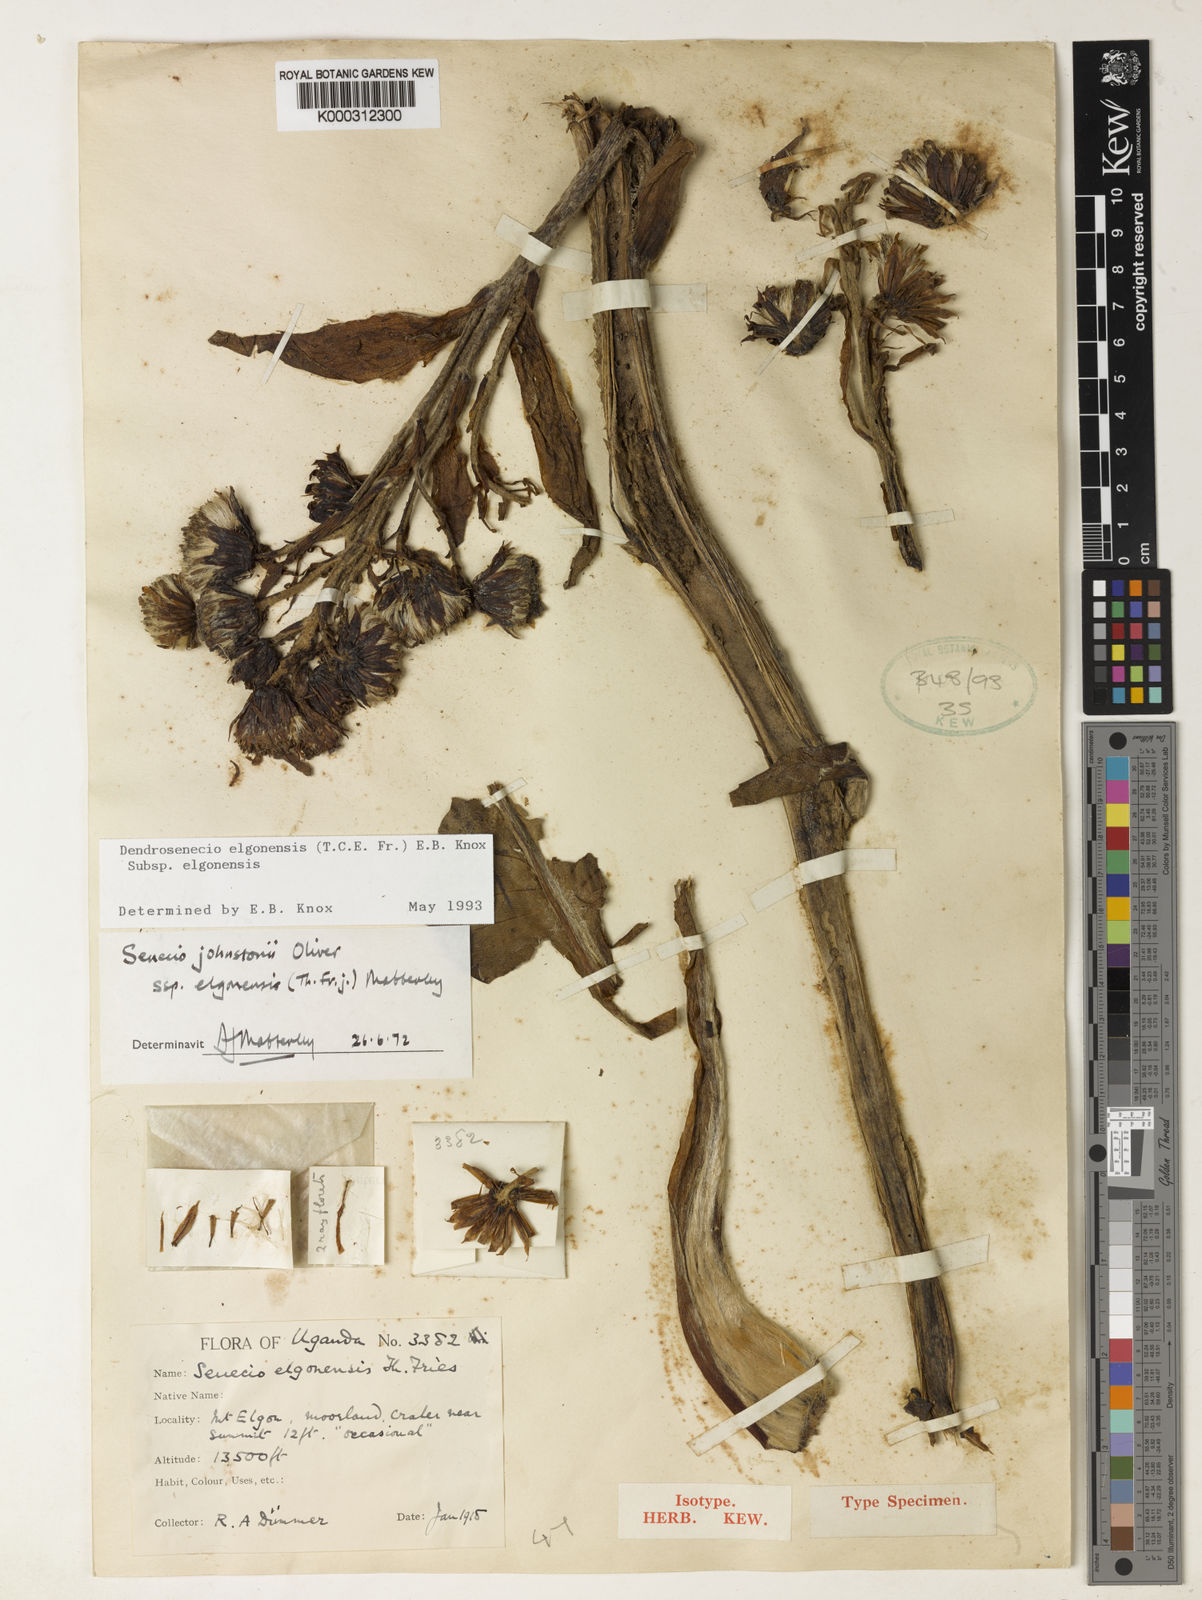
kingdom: Plantae
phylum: Tracheophyta
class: Magnoliopsida
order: Asterales
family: Asteraceae
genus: Dendrosenecio
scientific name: Dendrosenecio elgonensis
